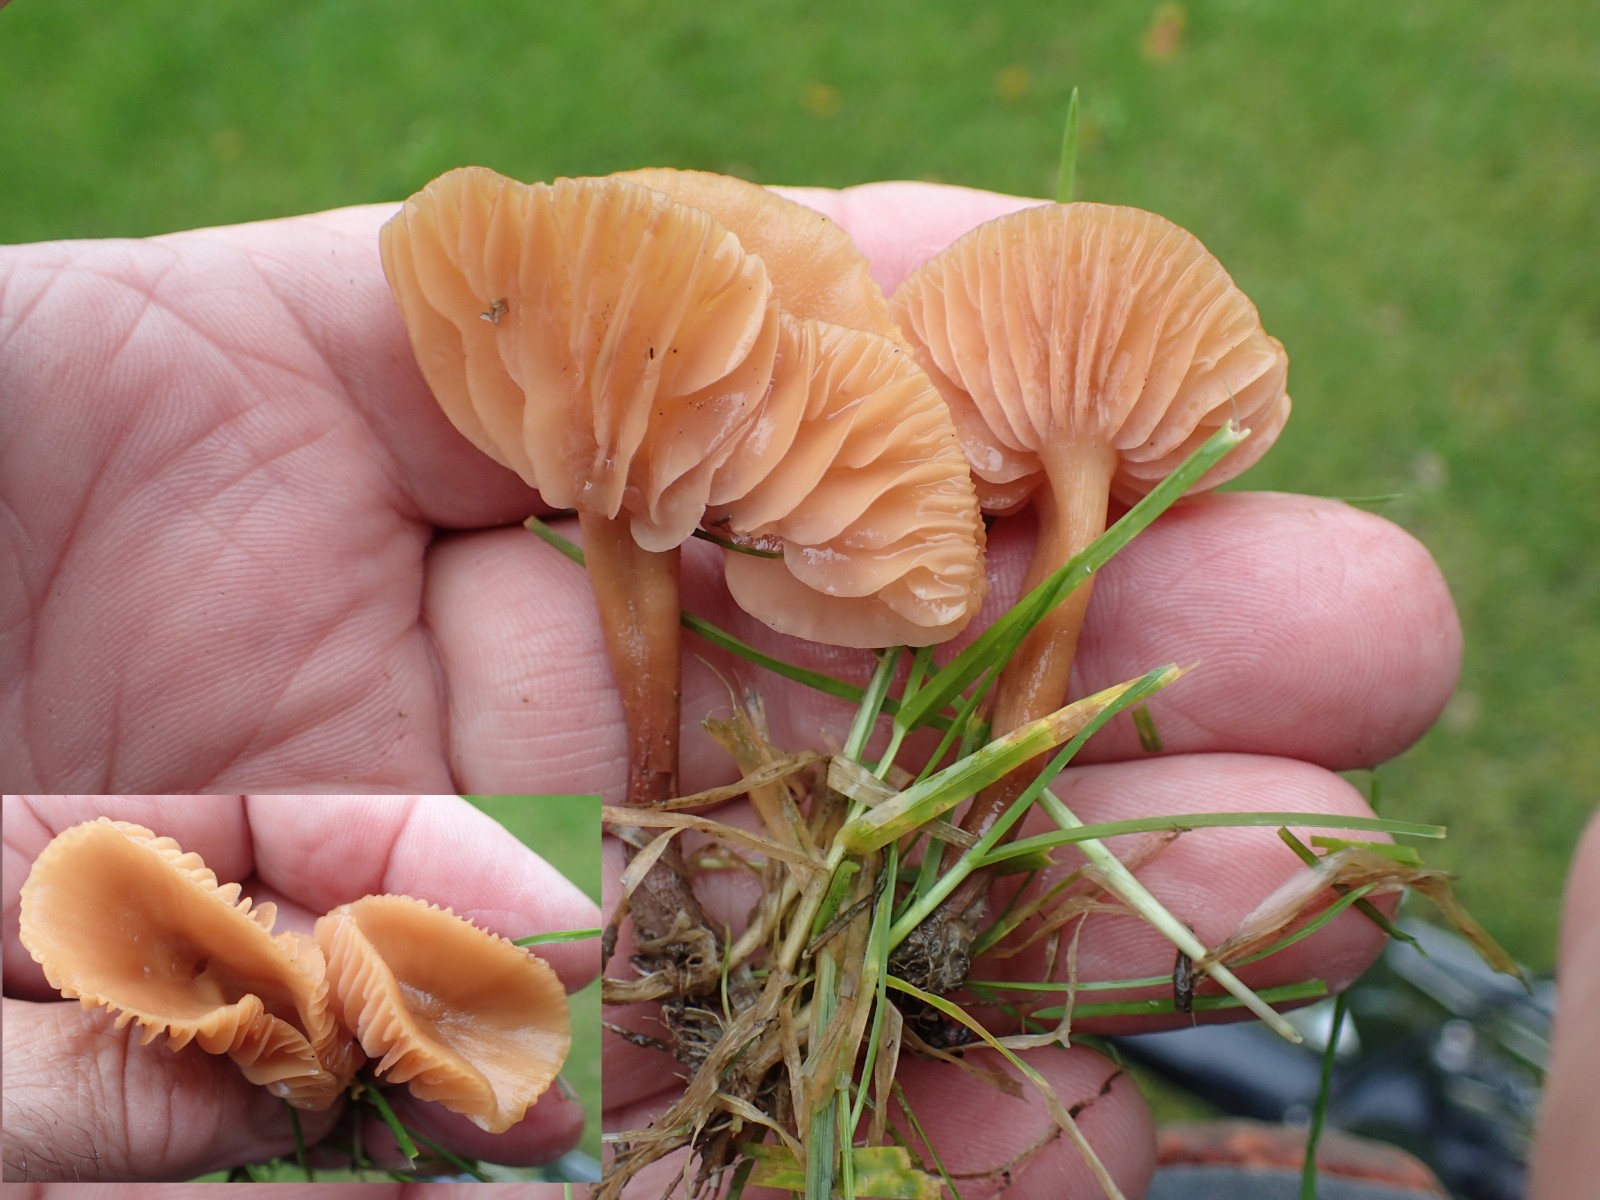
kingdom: Fungi
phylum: Basidiomycota
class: Agaricomycetes
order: Agaricales
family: Hydnangiaceae
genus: Laccaria
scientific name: Laccaria laccata
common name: rød ametysthat
